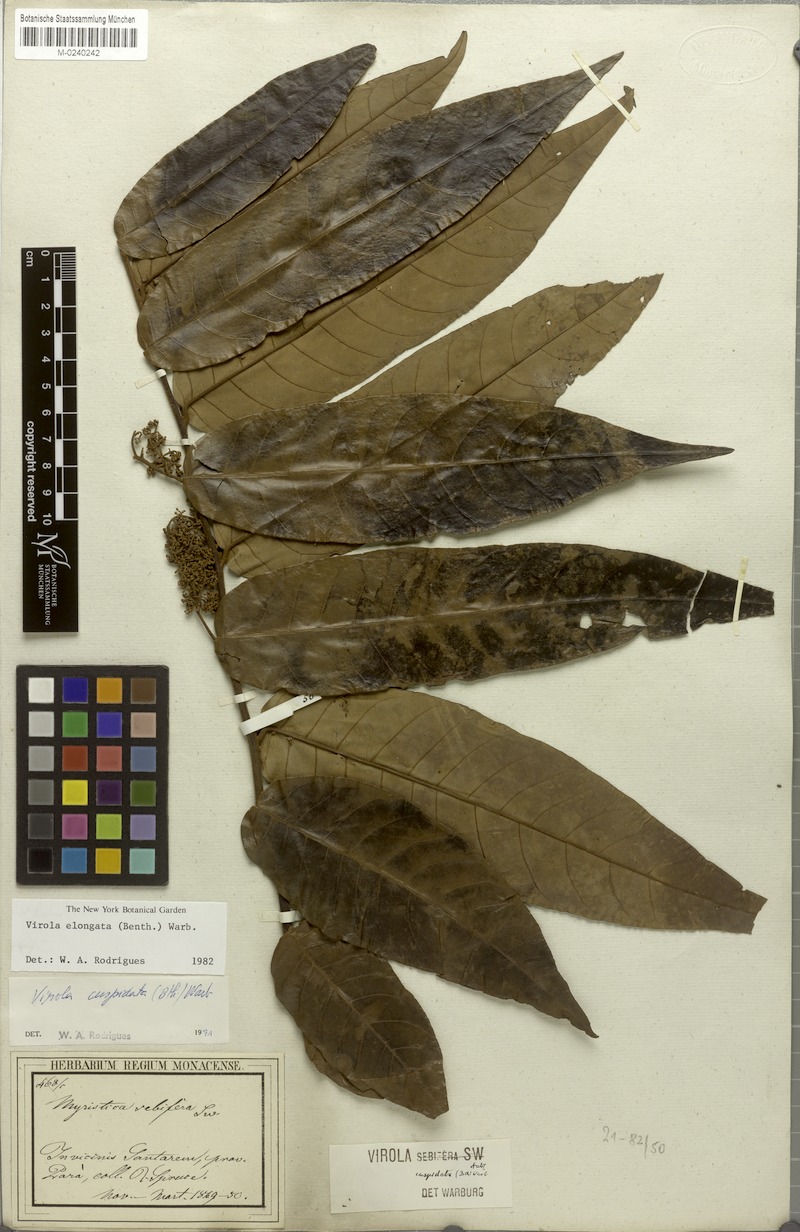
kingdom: Plantae
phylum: Tracheophyta
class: Magnoliopsida
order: Magnoliales
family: Myristicaceae
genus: Virola
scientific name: Virola elongata
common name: Sacred virola
